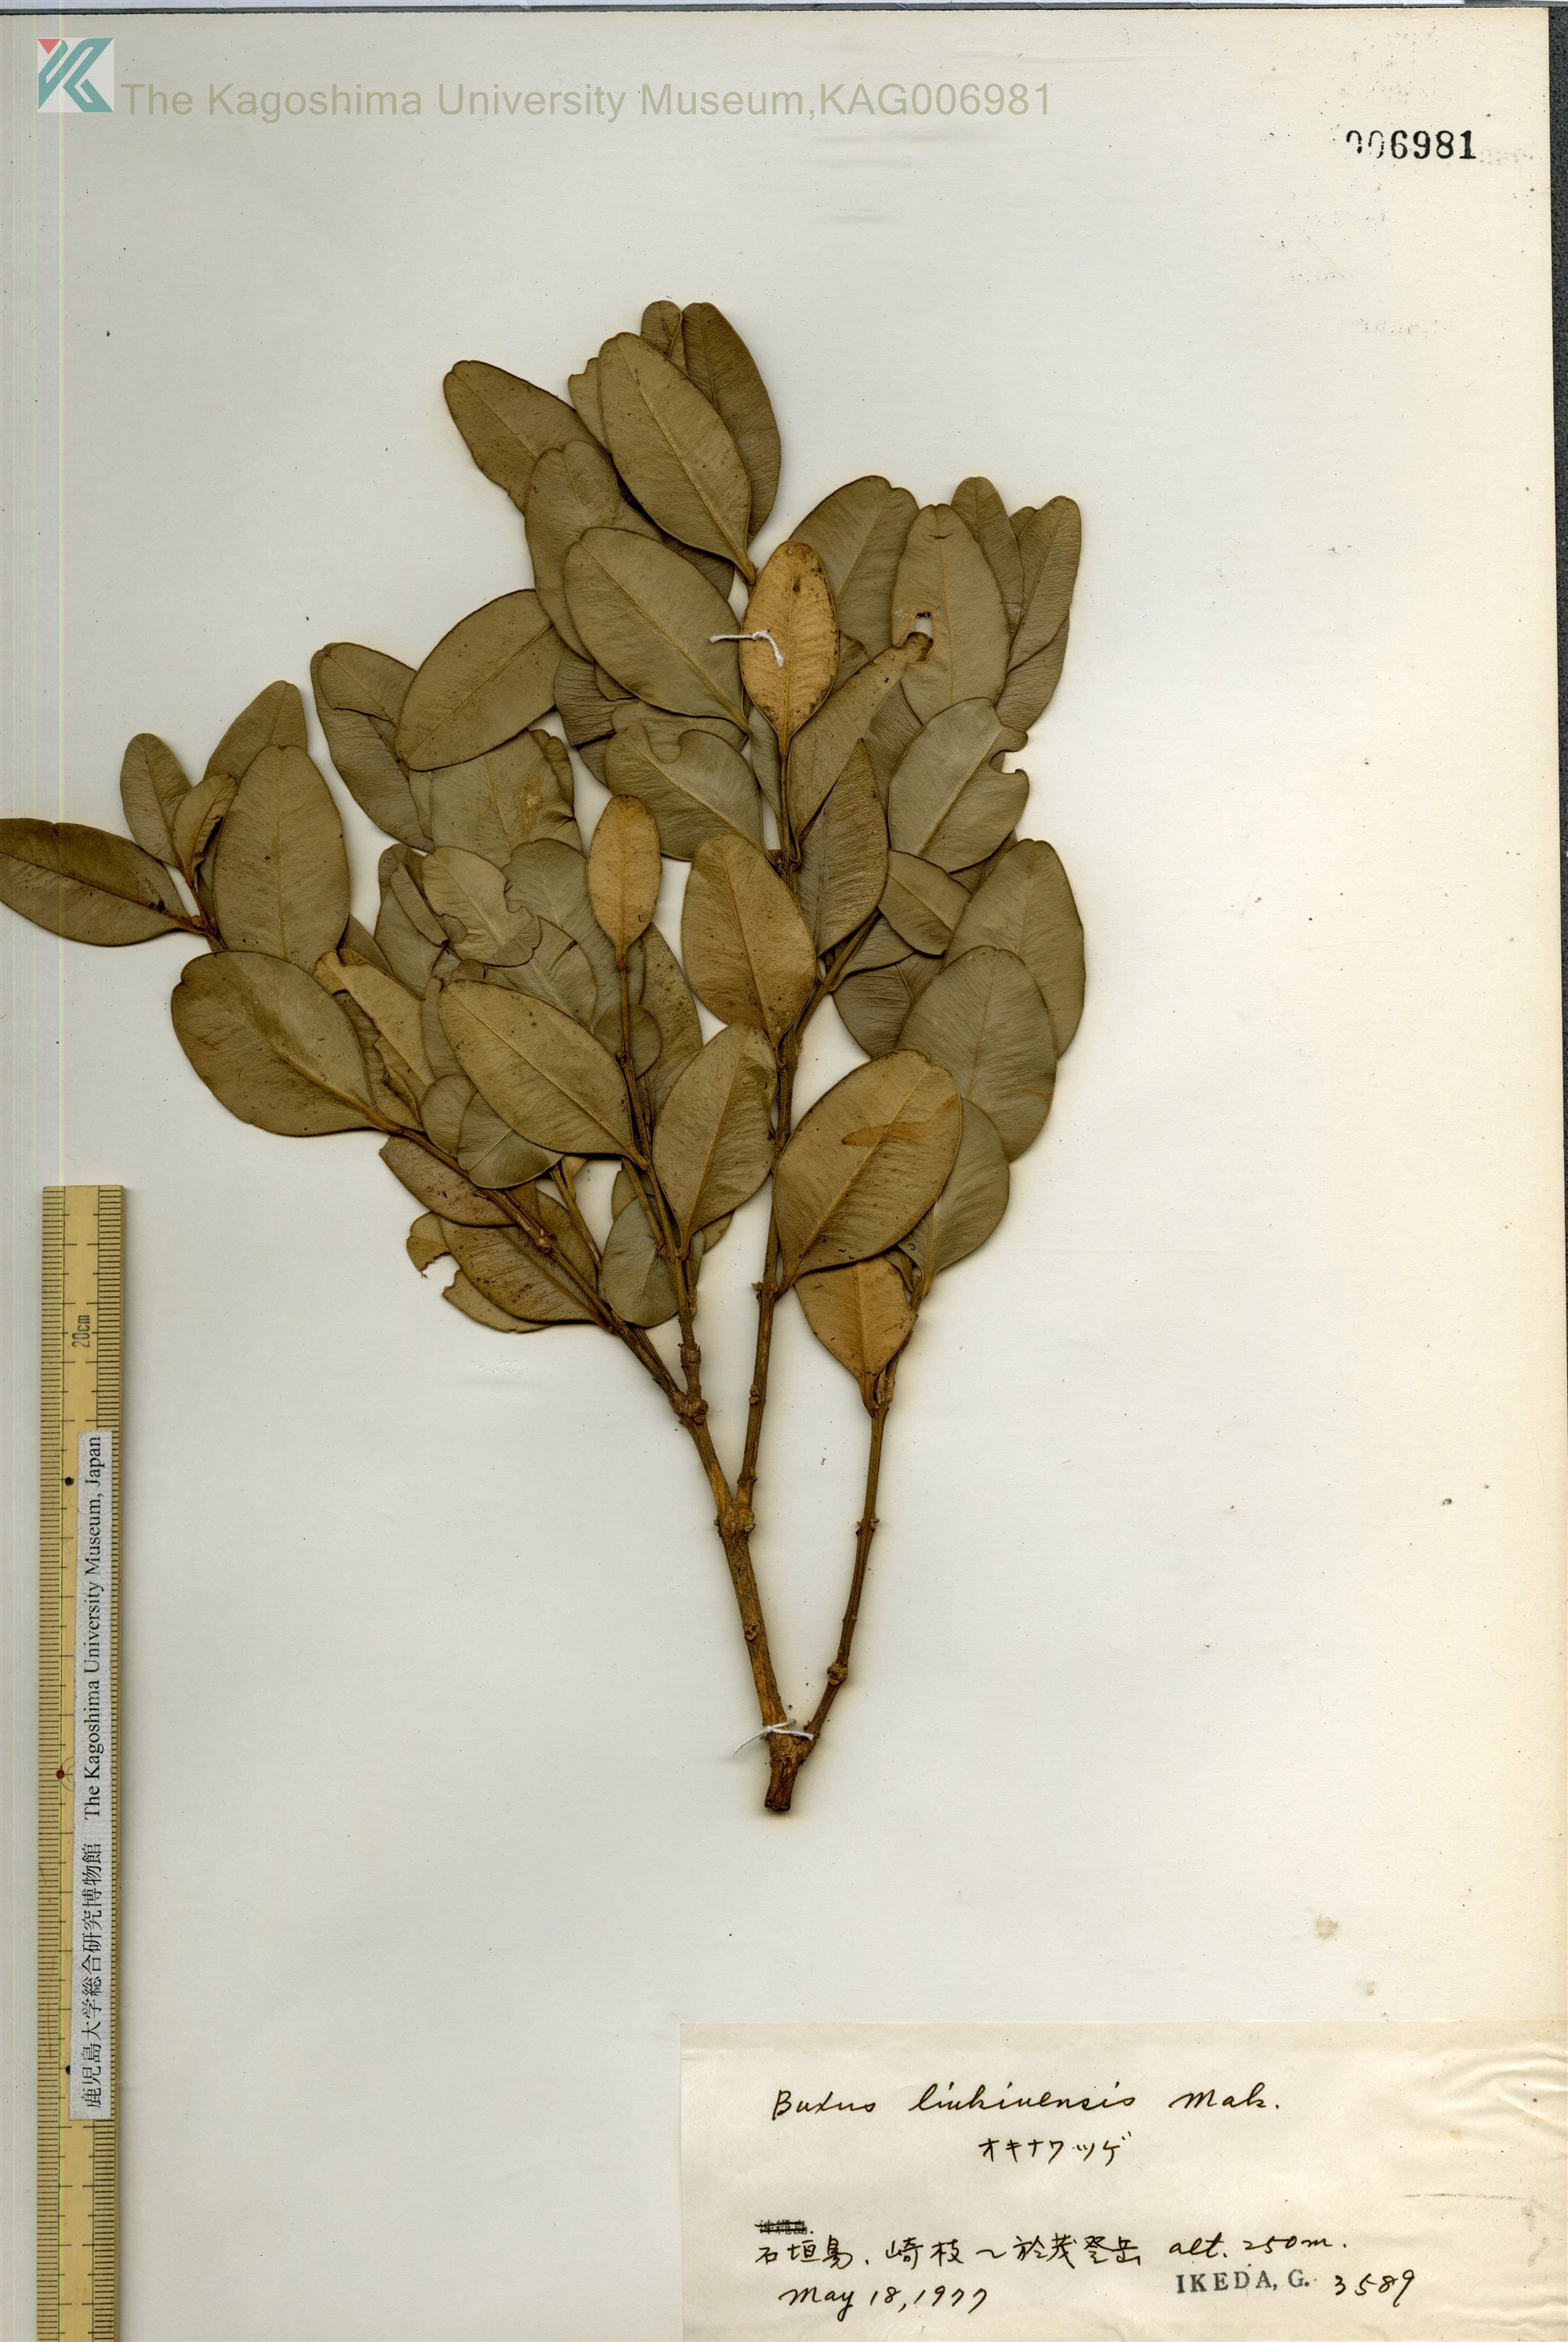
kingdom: Plantae
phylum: Tracheophyta
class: Magnoliopsida
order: Buxales
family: Buxaceae
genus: Buxus
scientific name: Buxus liukiuensis
